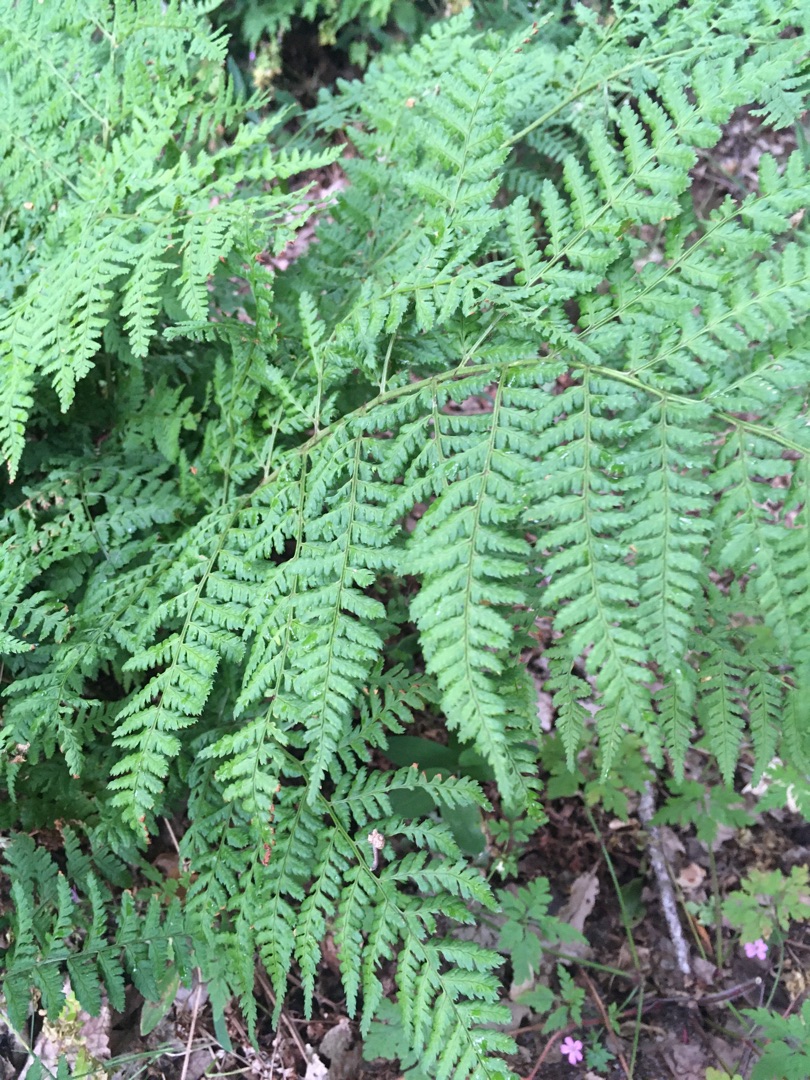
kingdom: Plantae
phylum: Tracheophyta
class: Polypodiopsida
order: Polypodiales
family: Dryopteridaceae
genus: Dryopteris
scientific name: Dryopteris dilatata
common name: Bredbladet mangeløv
